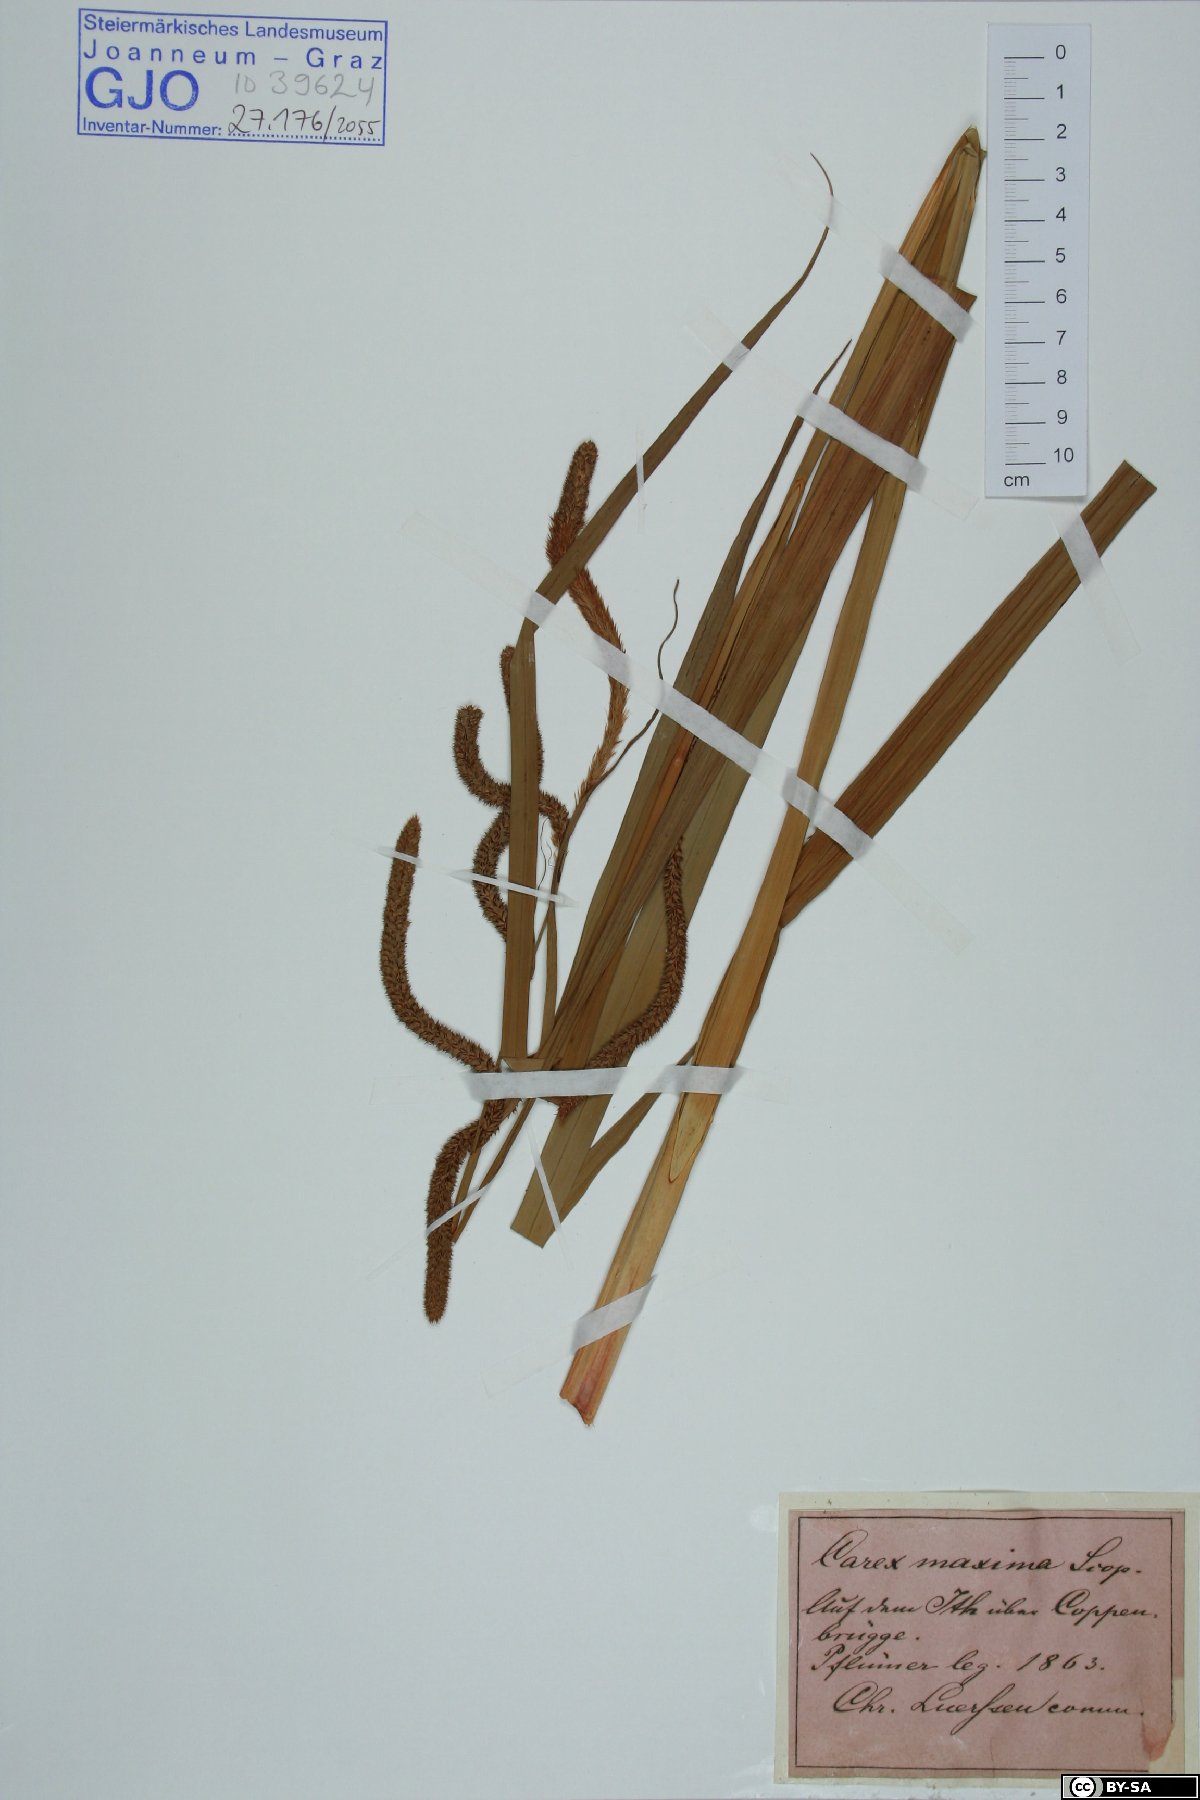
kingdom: Plantae
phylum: Tracheophyta
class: Liliopsida
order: Poales
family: Cyperaceae
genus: Carex
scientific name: Carex pendula
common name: Pendulous sedge
